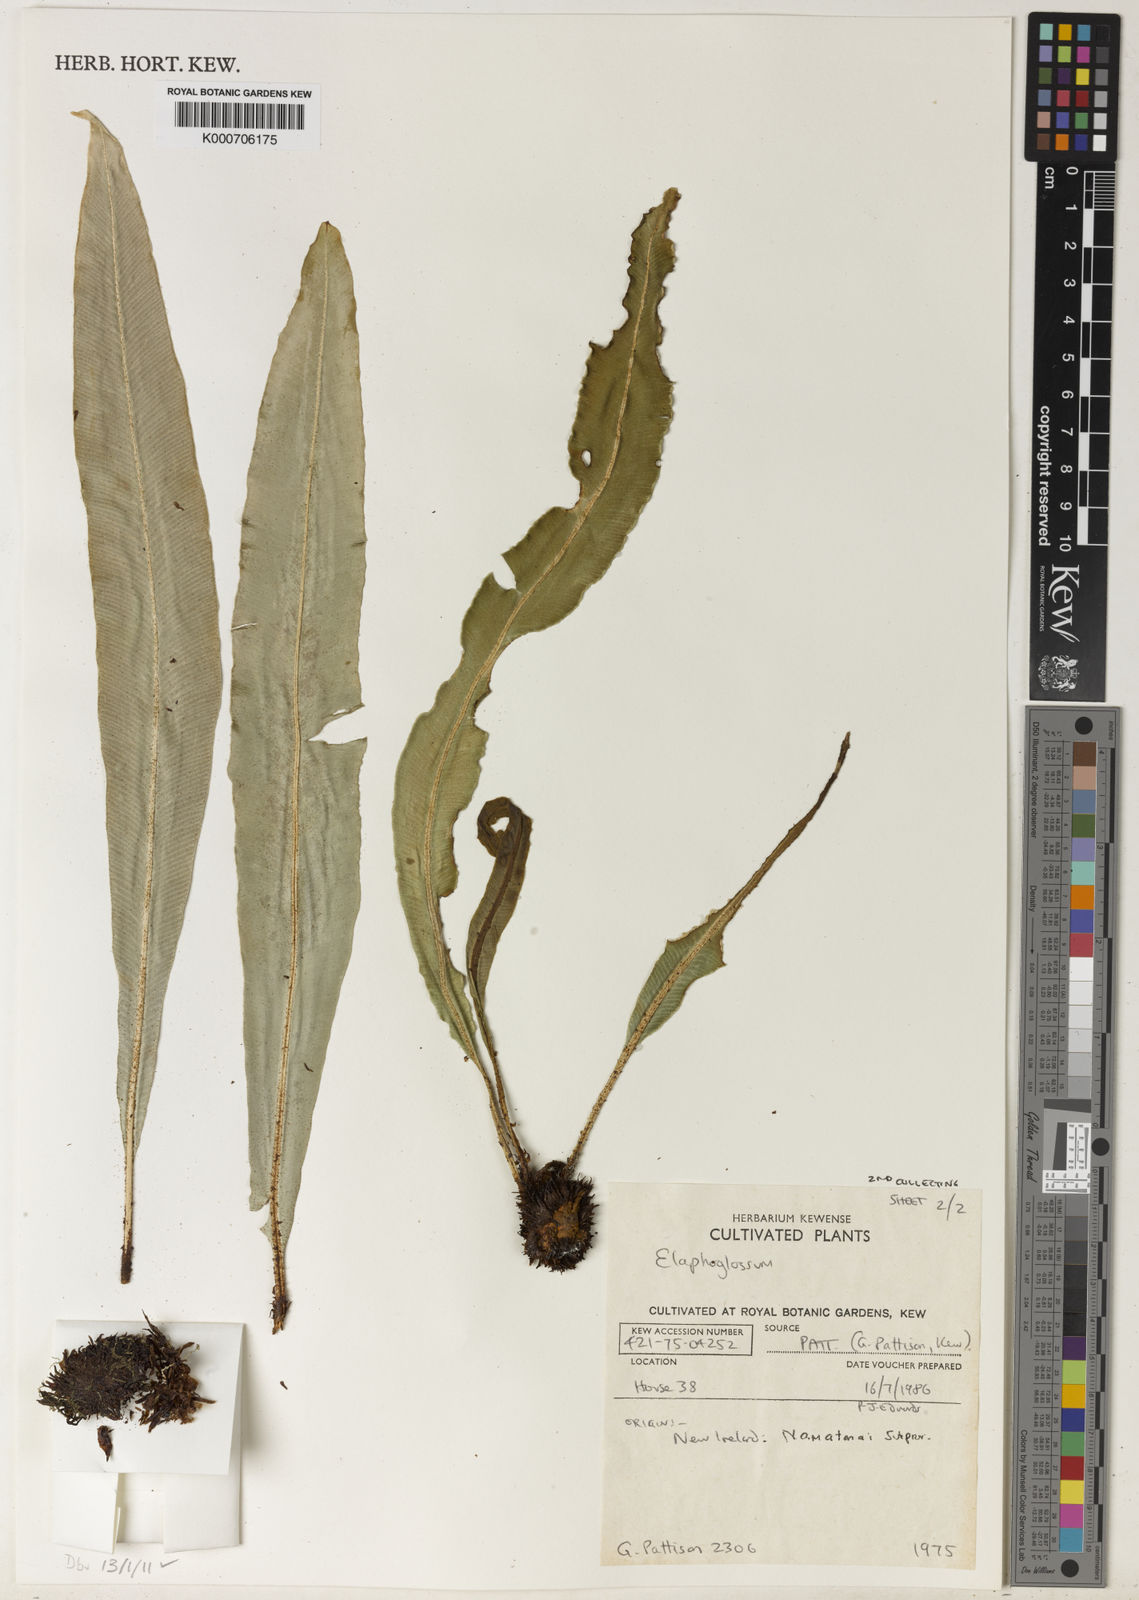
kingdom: Plantae
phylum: Tracheophyta
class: Polypodiopsida
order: Polypodiales
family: Dryopteridaceae
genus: Elaphoglossum
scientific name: Elaphoglossum
